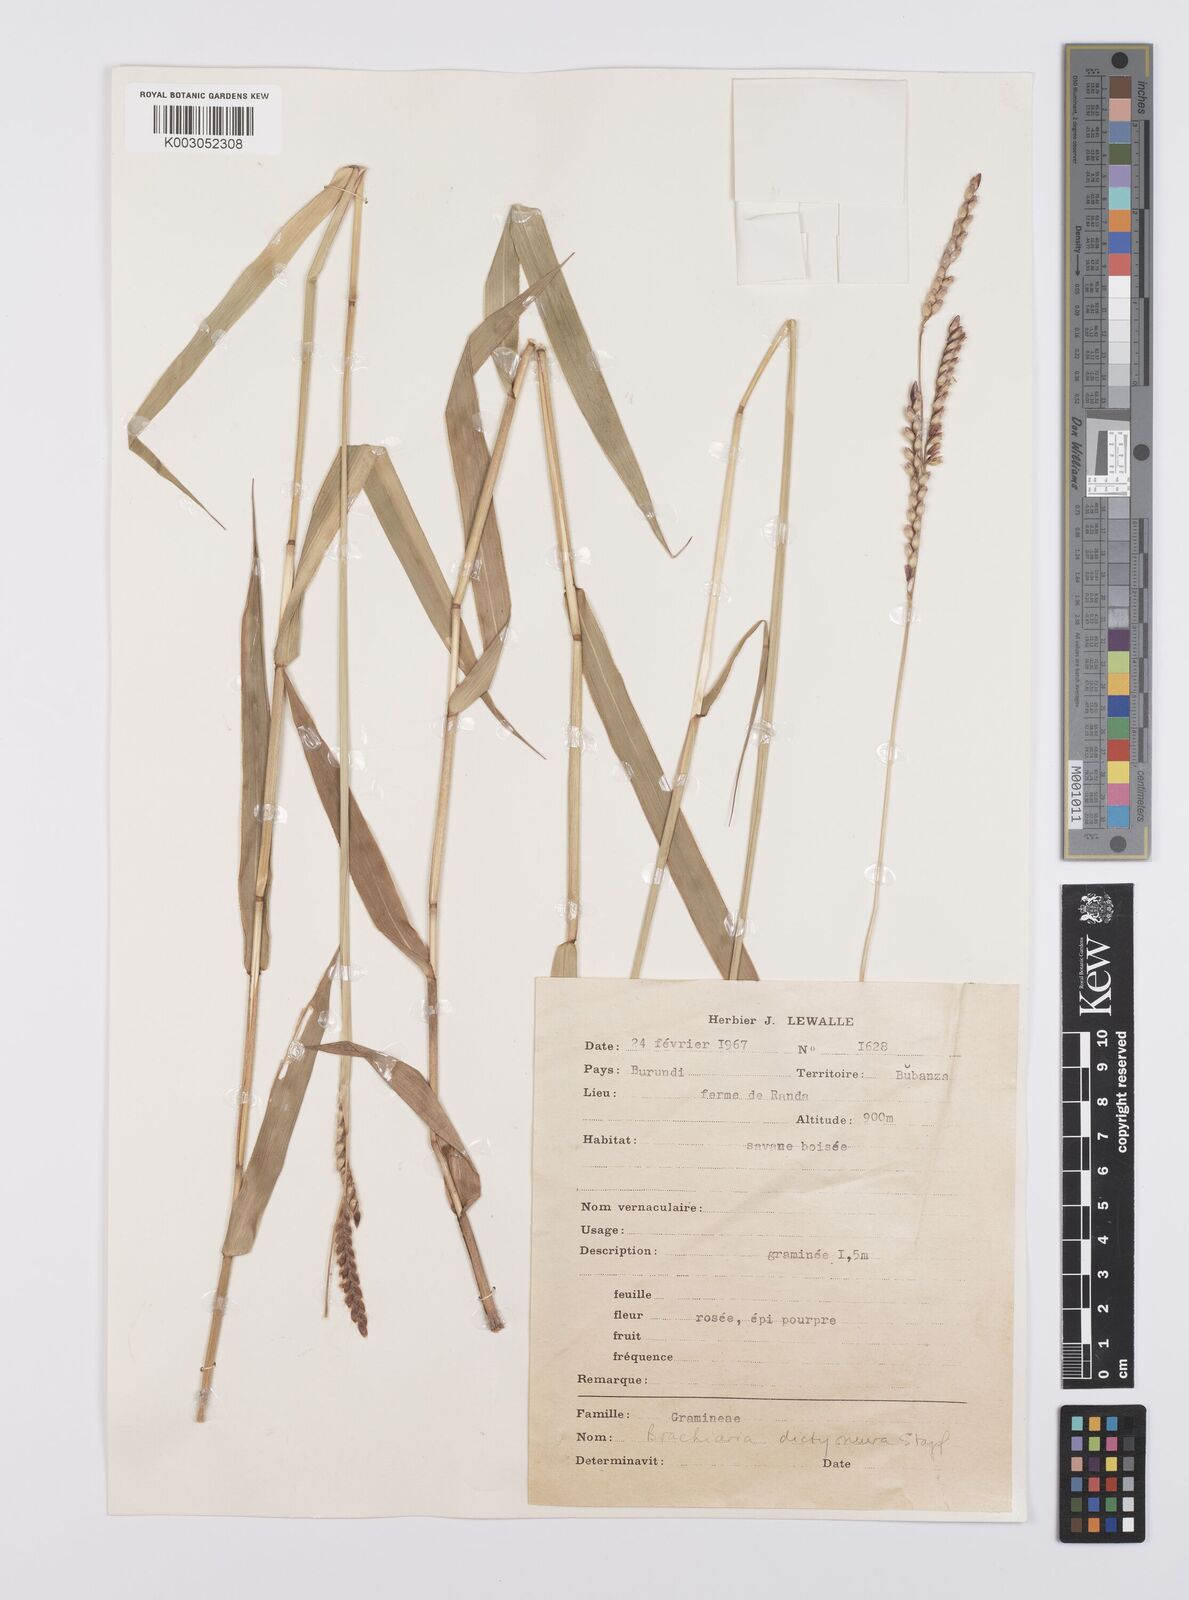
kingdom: Plantae
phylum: Tracheophyta
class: Liliopsida
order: Poales
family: Poaceae
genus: Urochloa
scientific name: Urochloa dictyoneura
